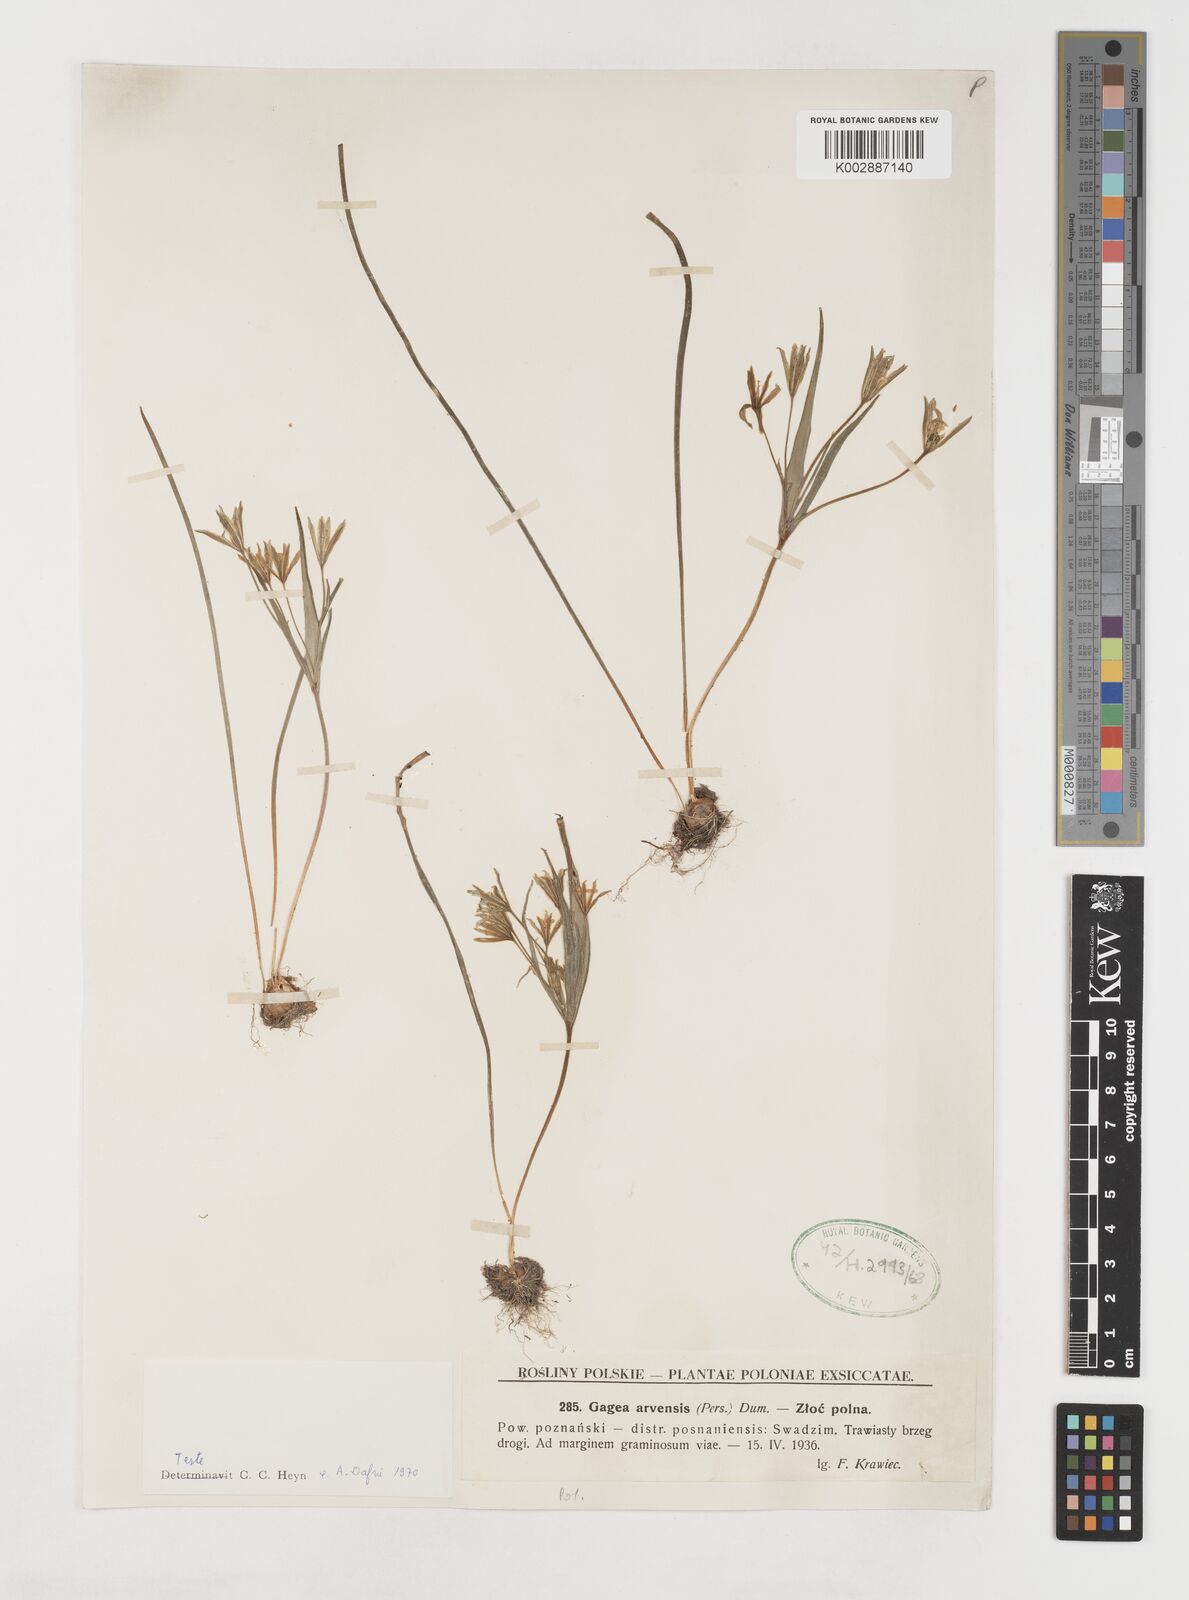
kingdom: Plantae
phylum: Tracheophyta
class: Liliopsida
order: Liliales
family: Liliaceae
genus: Gagea
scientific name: Gagea minima
